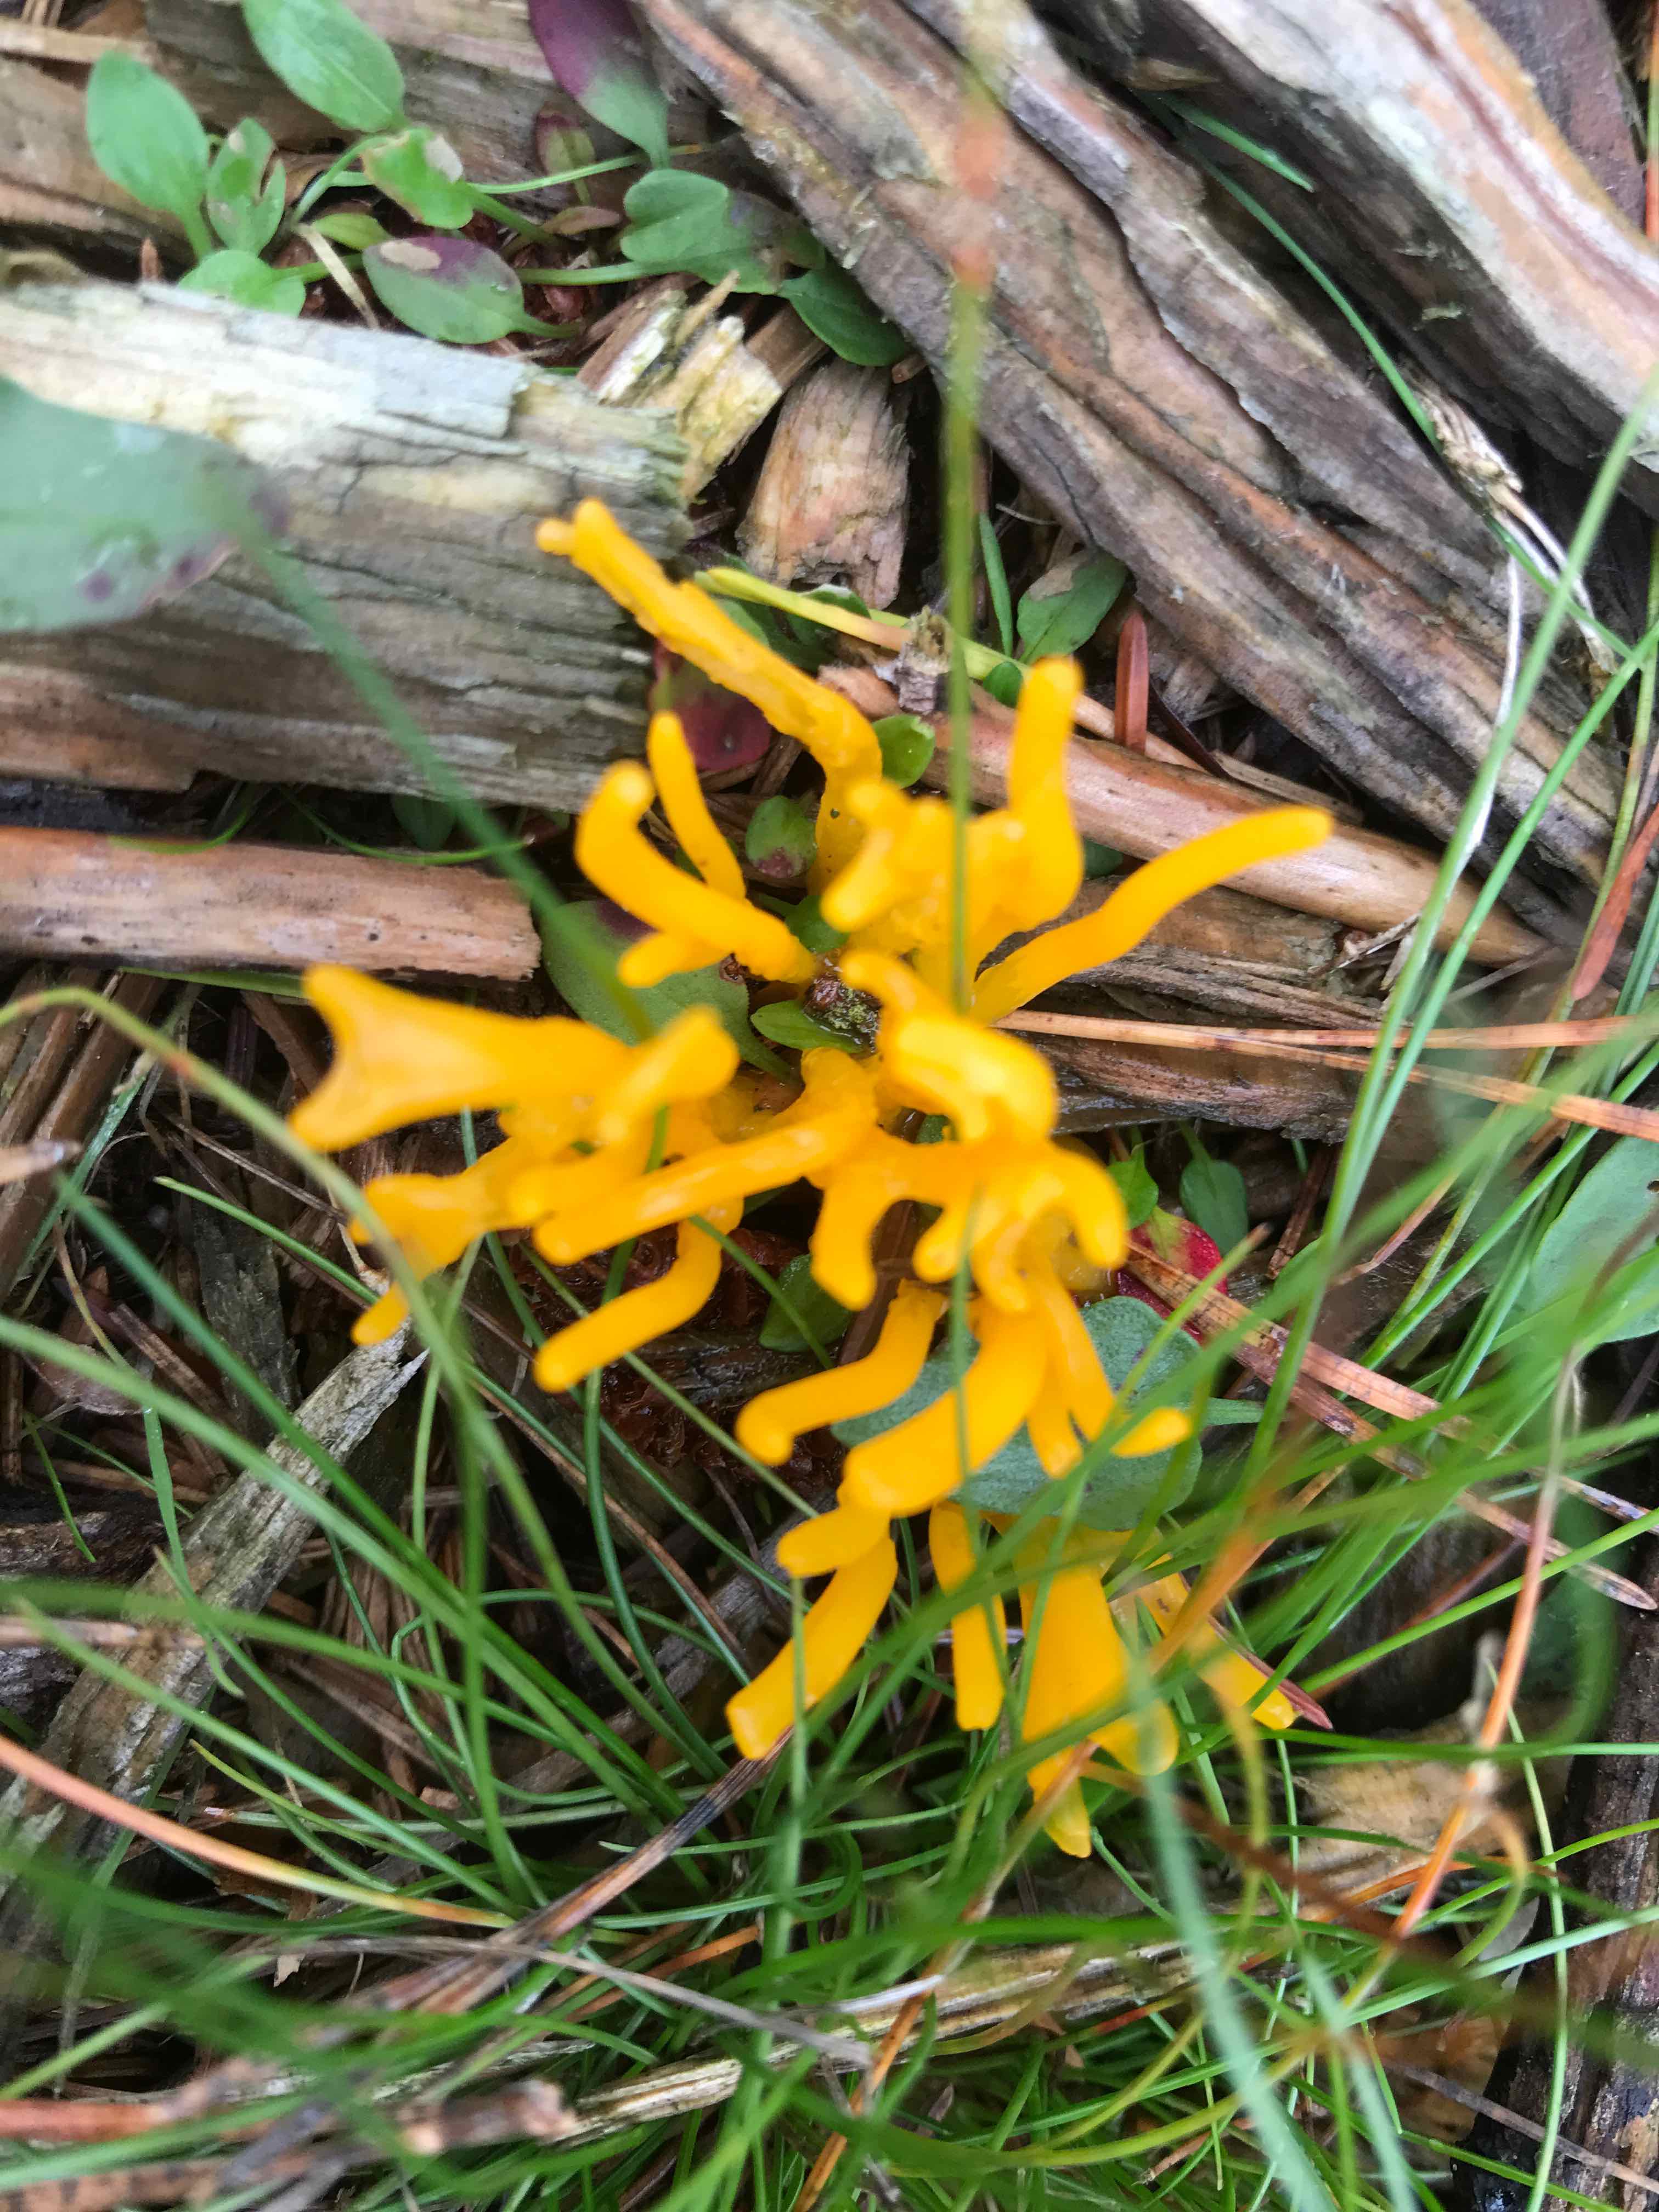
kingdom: Fungi
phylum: Basidiomycota
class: Dacrymycetes
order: Dacrymycetales
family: Dacrymycetaceae
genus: Calocera
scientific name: Calocera viscosa
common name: almindelig guldgaffel
